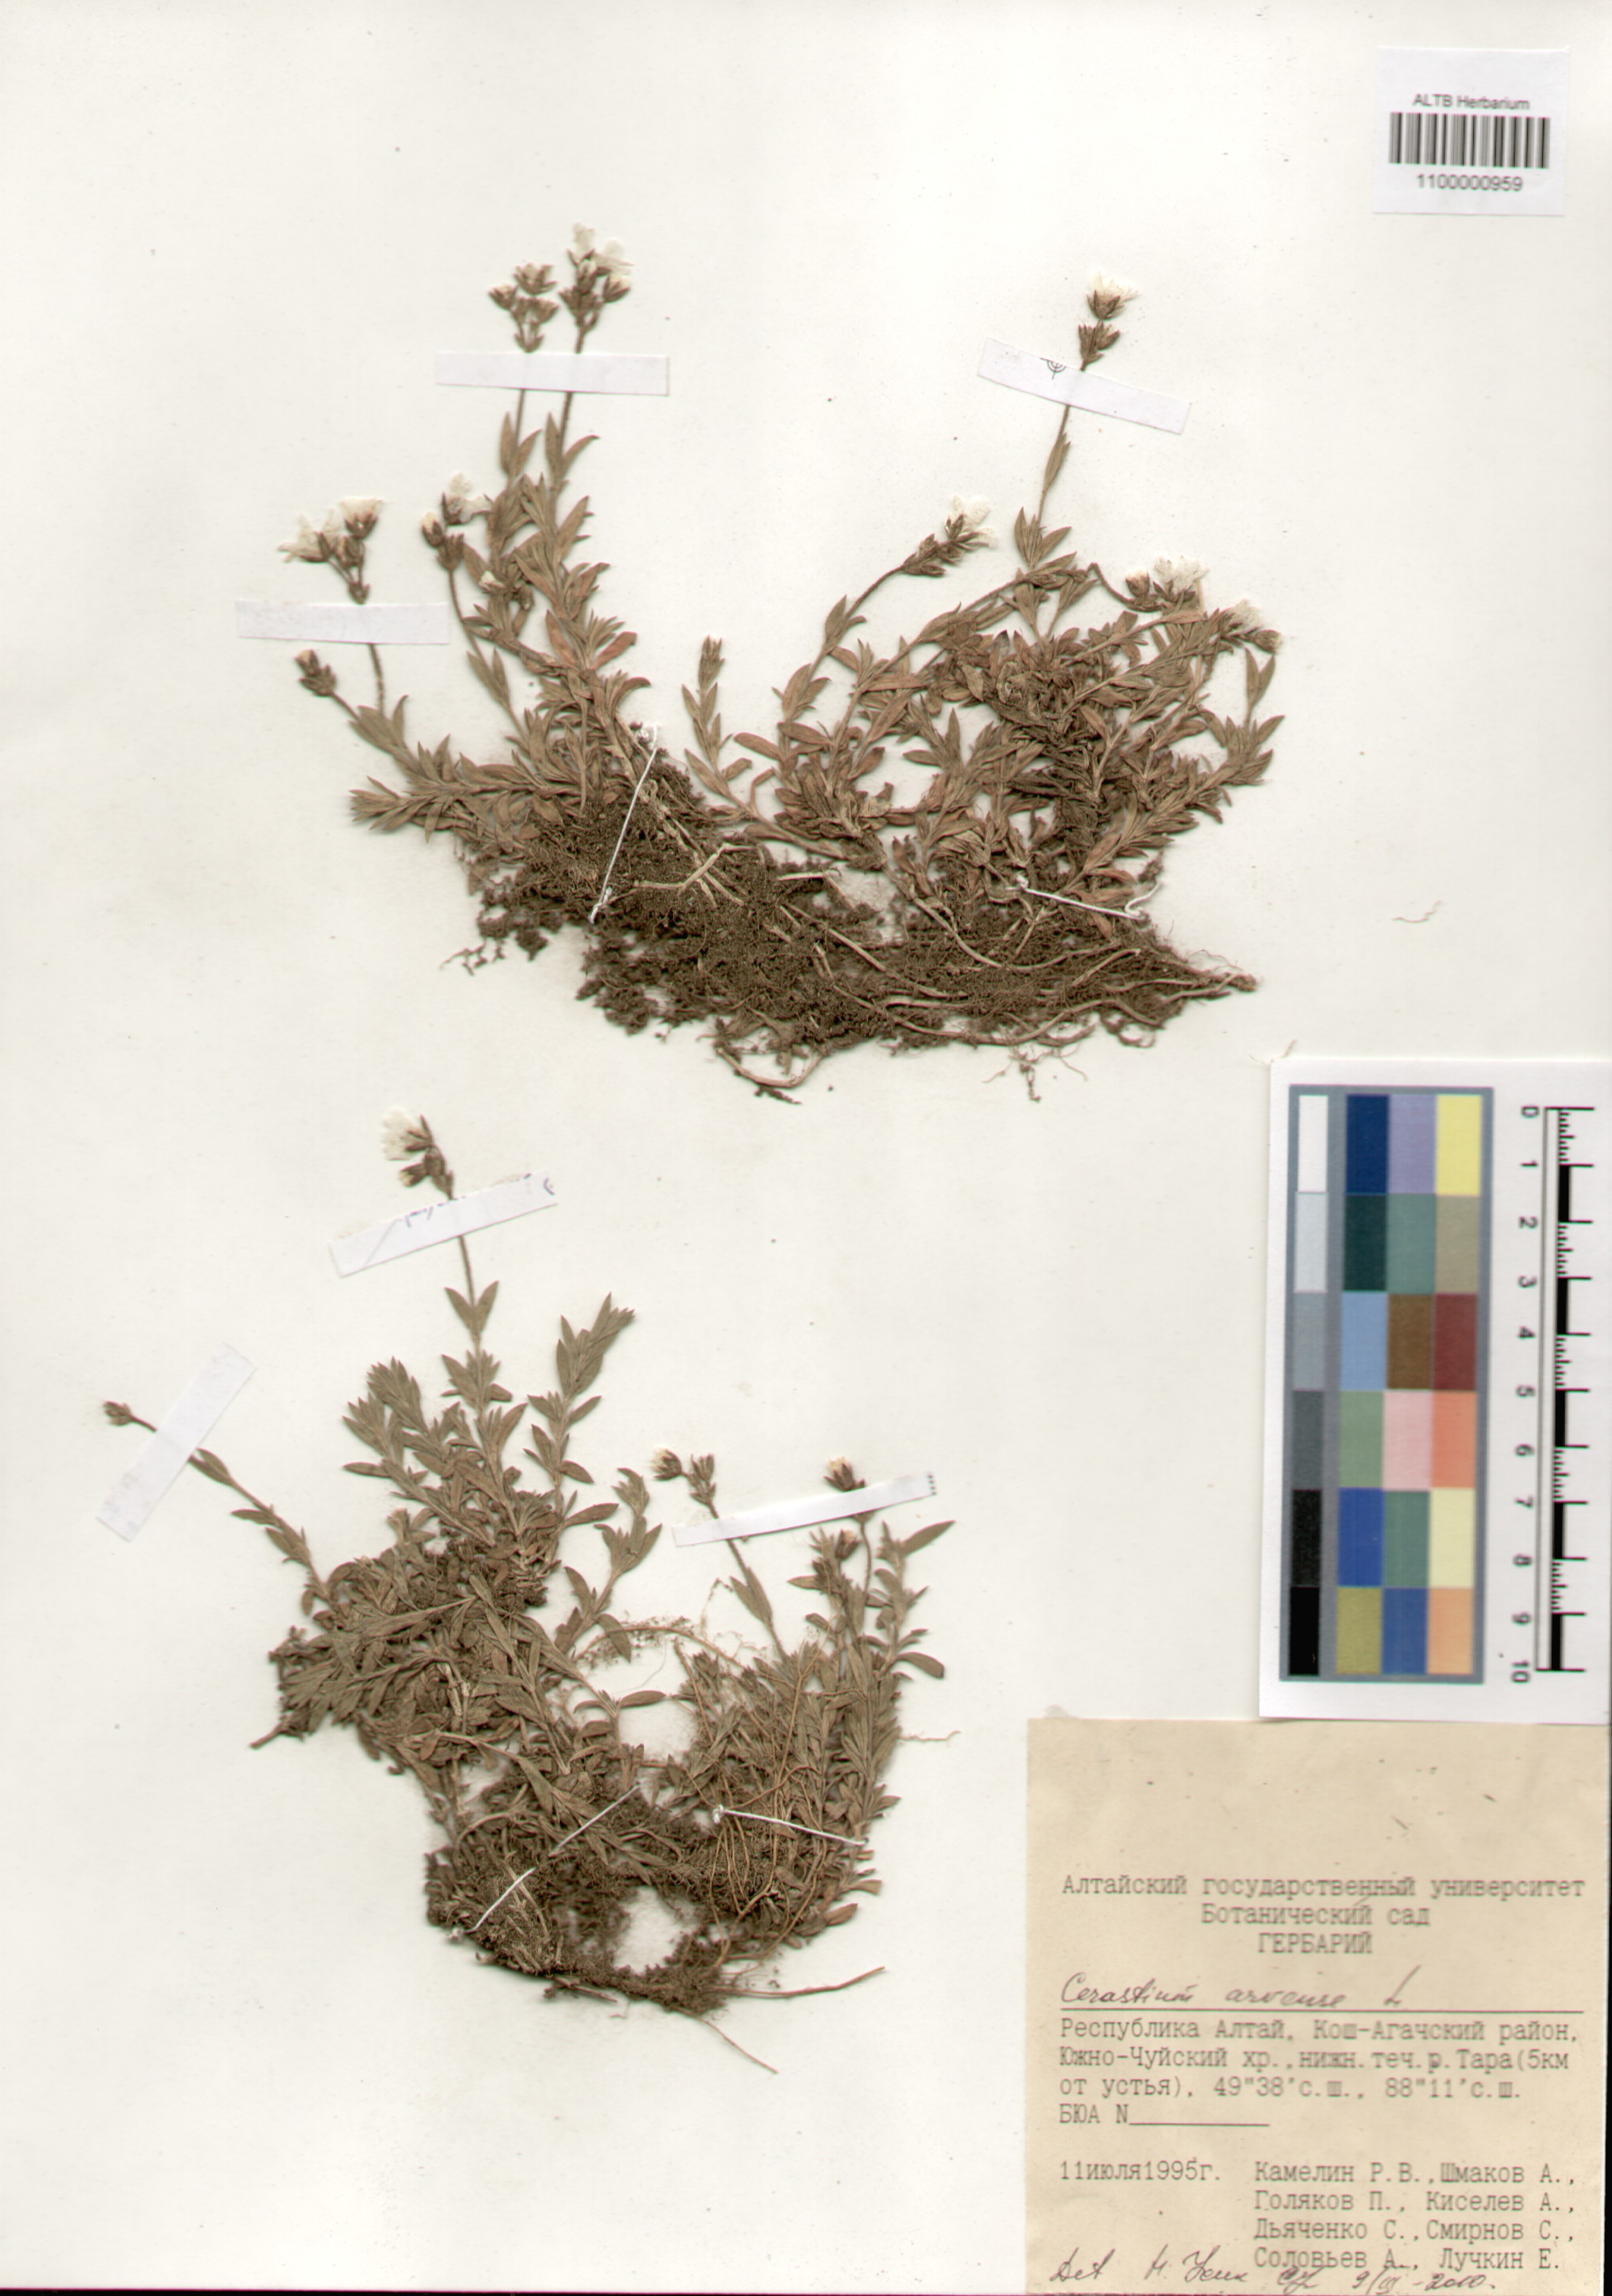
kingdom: Plantae
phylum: Tracheophyta
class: Magnoliopsida
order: Caryophyllales
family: Caryophyllaceae
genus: Cerastium
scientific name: Cerastium arvense
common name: Field mouse-ear
